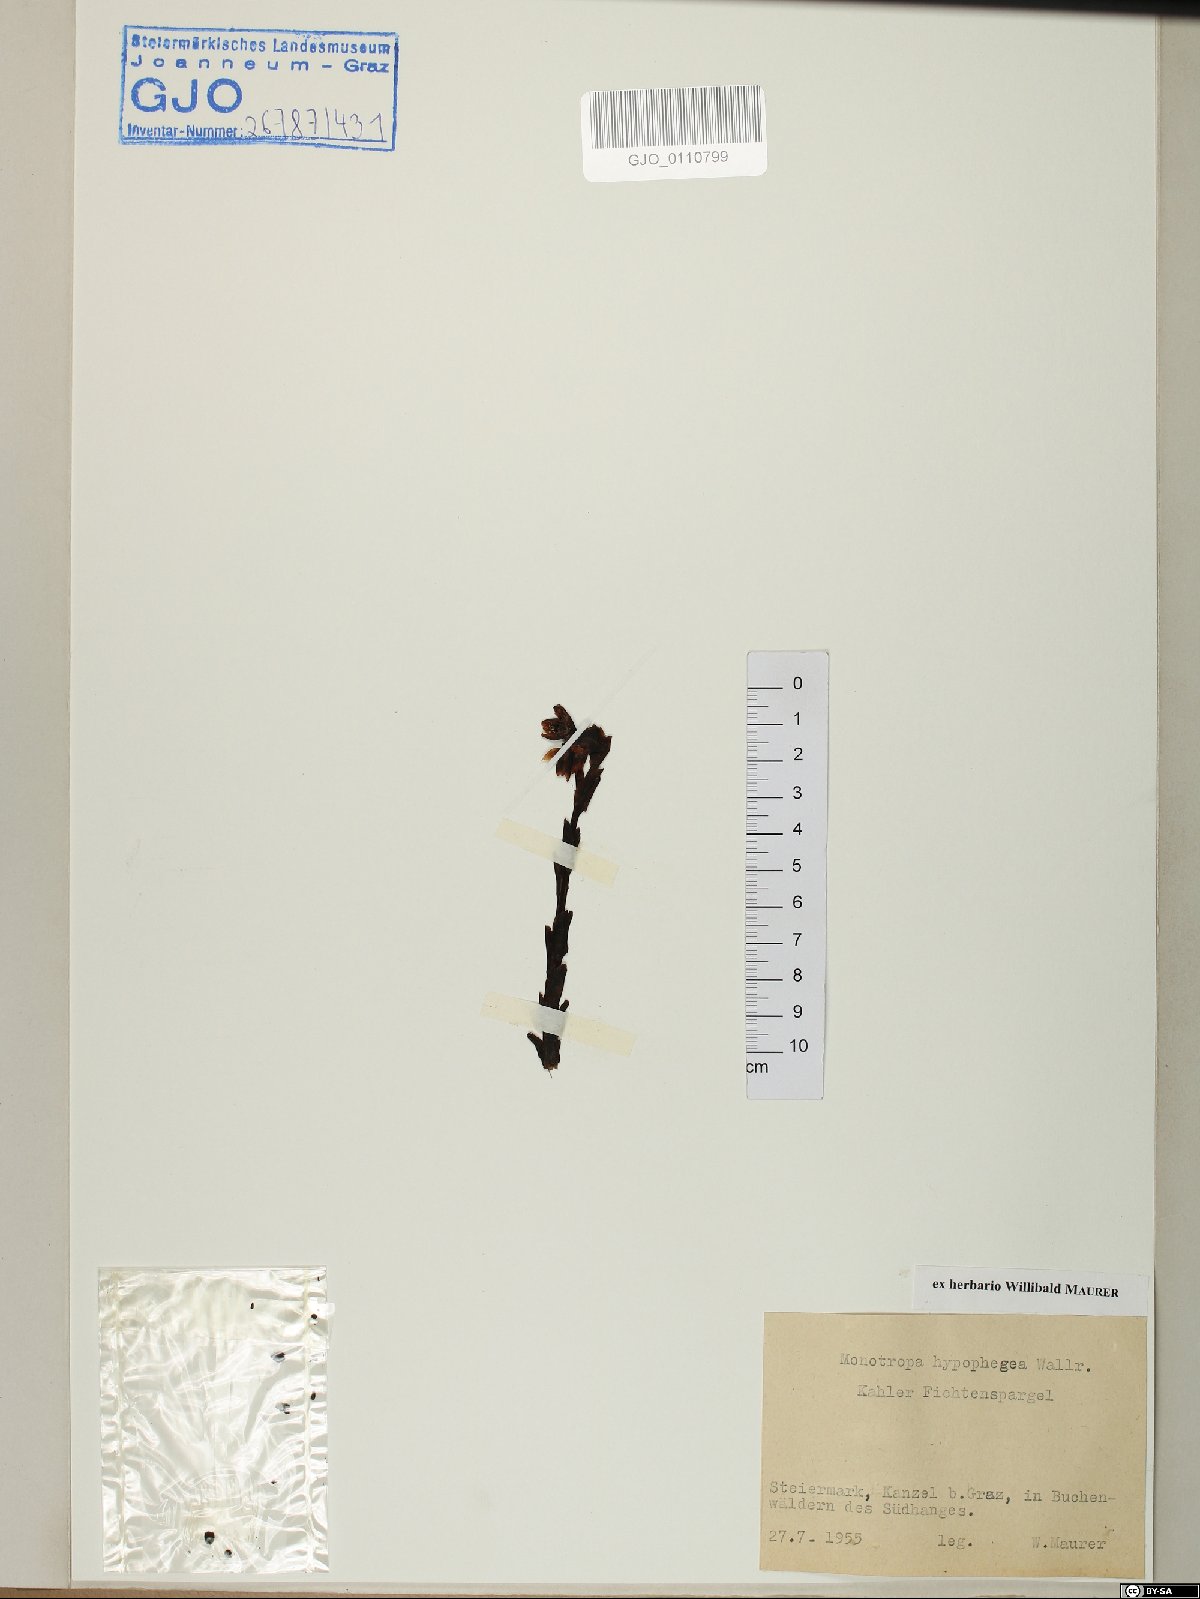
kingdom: Plantae
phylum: Tracheophyta
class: Magnoliopsida
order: Ericales
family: Ericaceae
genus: Hypopitys
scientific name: Hypopitys hypophegea
